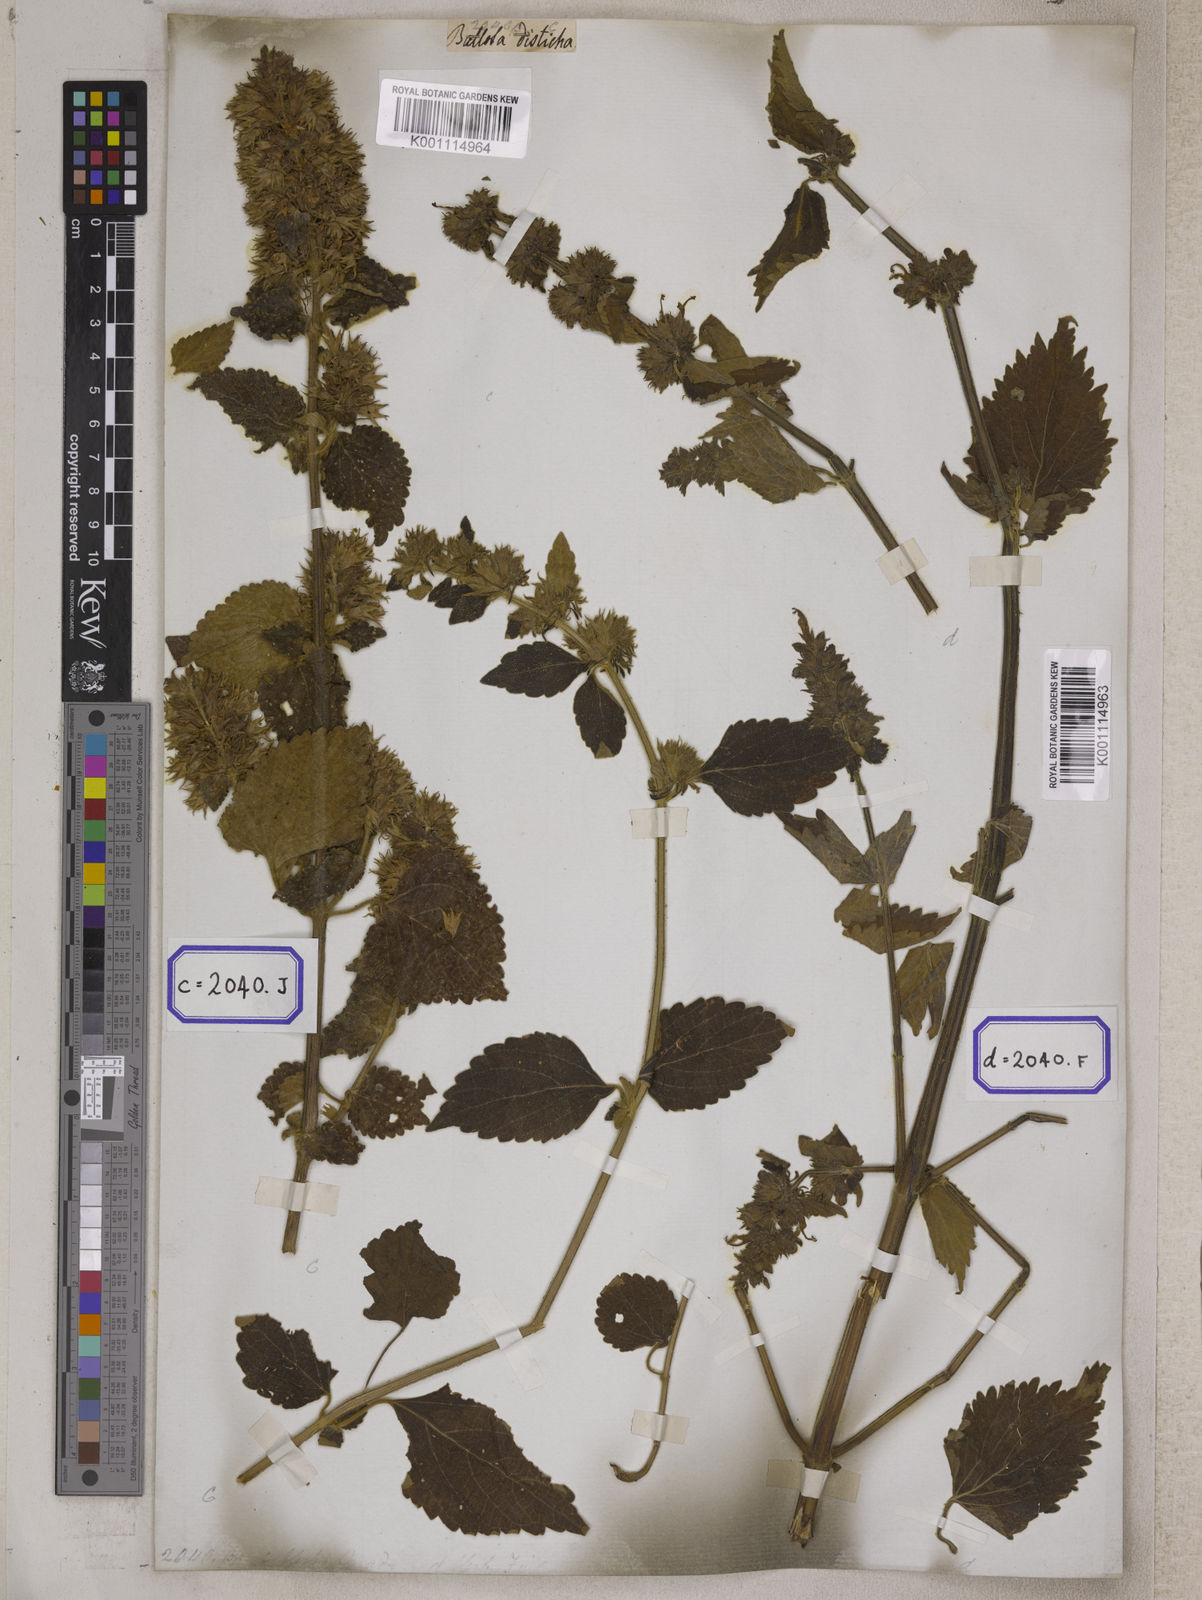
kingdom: Plantae
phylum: Tracheophyta
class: Magnoliopsida
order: Lamiales
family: Lamiaceae
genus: Anisomeles
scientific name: Anisomeles
